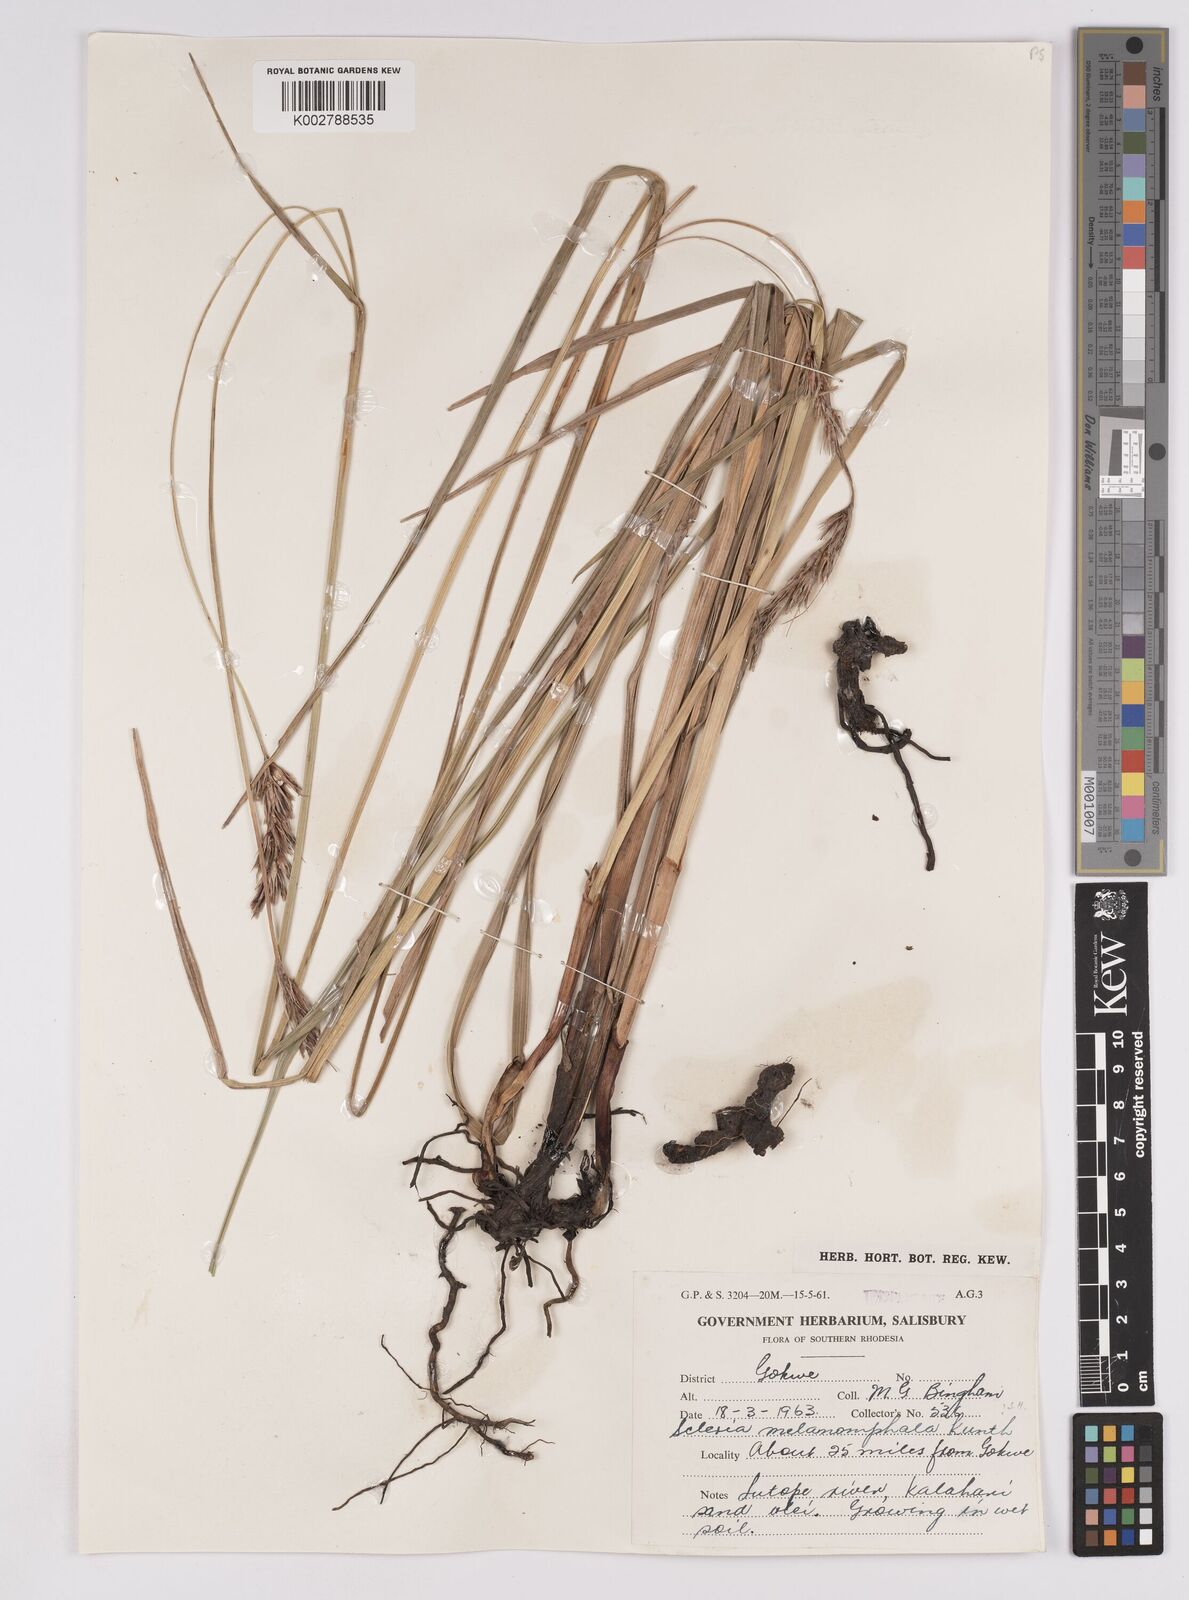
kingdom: Plantae
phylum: Tracheophyta
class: Liliopsida
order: Poales
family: Cyperaceae
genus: Scleria
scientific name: Scleria melanomphala
